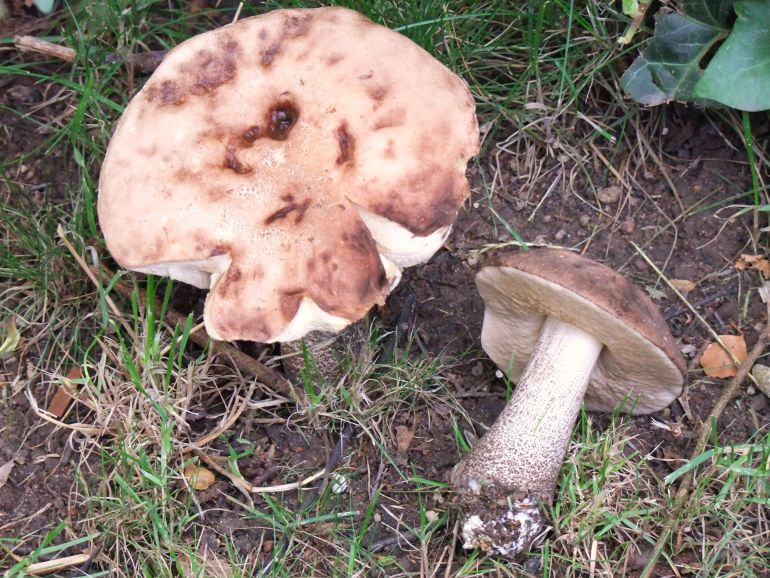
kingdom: Fungi
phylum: Basidiomycota
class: Agaricomycetes
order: Boletales
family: Boletaceae
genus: Leccinum
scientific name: Leccinum scabrum
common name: brun skælrørhat
